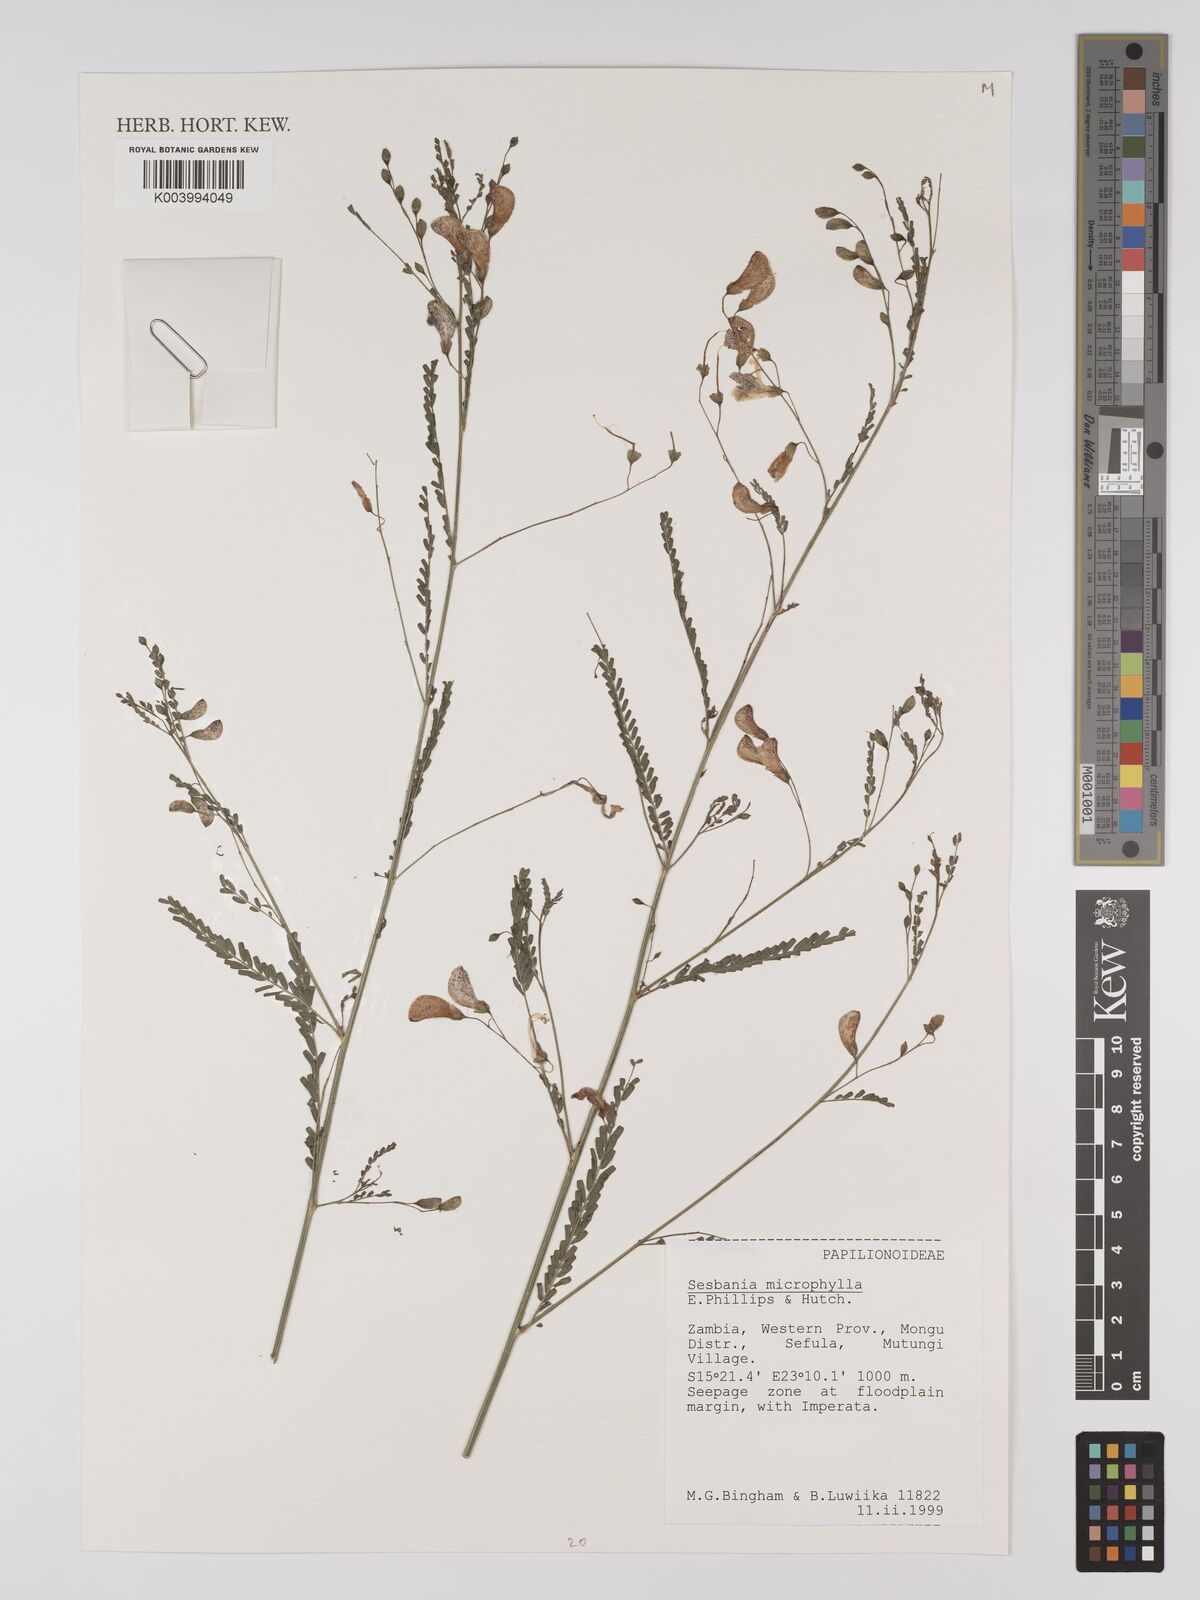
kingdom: Plantae
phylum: Tracheophyta
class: Magnoliopsida
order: Fabales
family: Fabaceae
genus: Sesbania
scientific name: Sesbania microphylla
